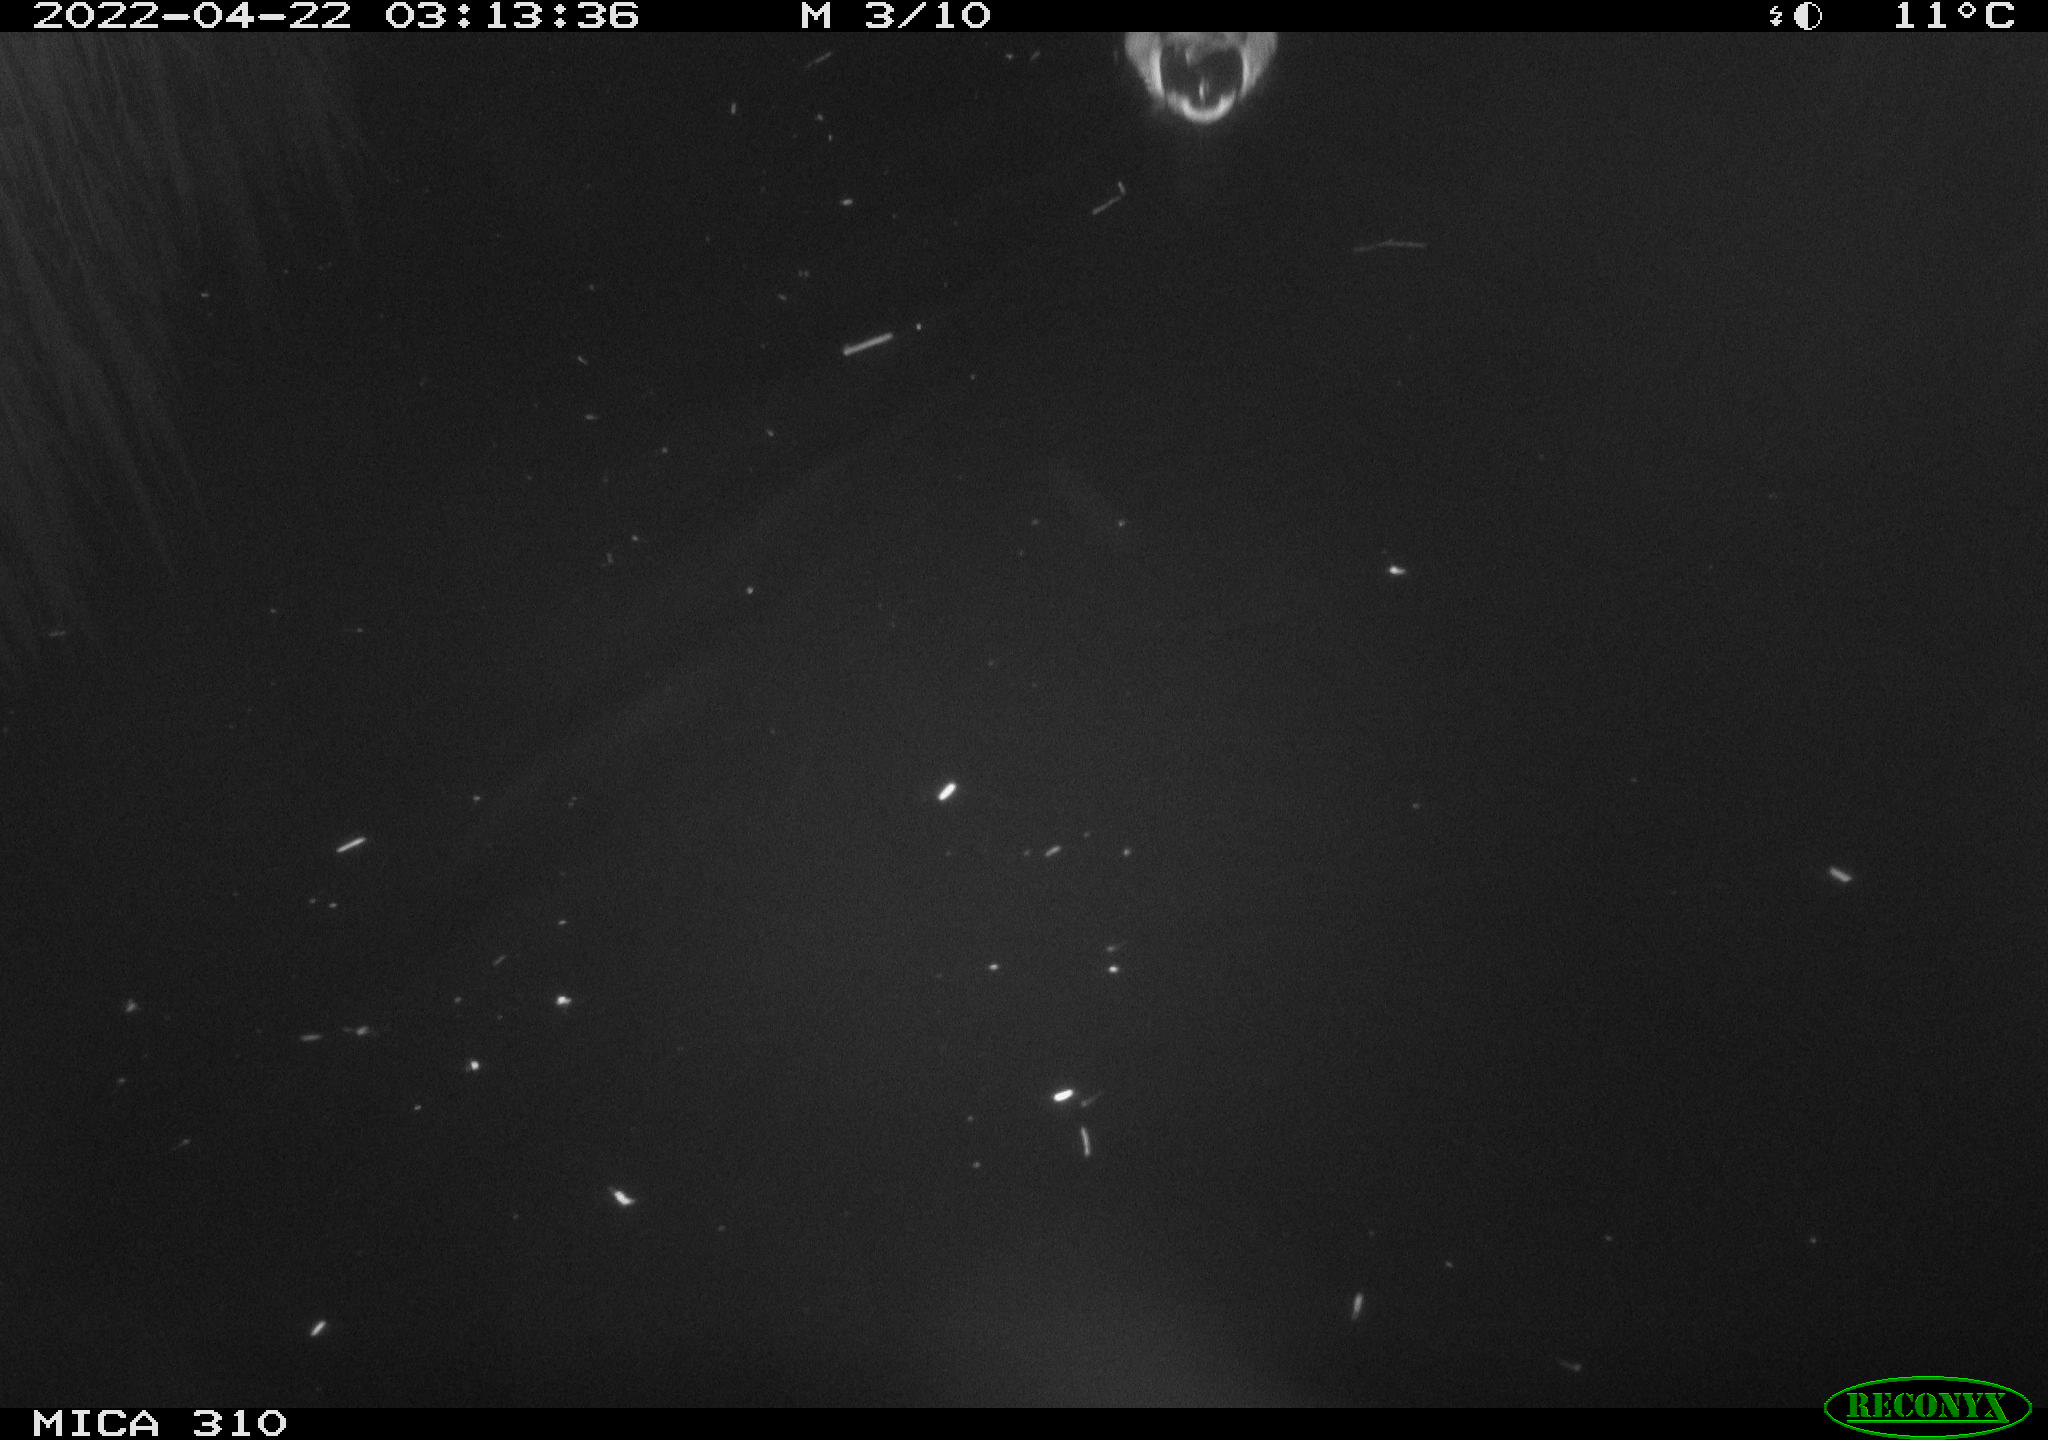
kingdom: Animalia
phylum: Chordata
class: Aves
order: Anseriformes
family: Anatidae
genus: Anas
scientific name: Anas platyrhynchos
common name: Mallard
